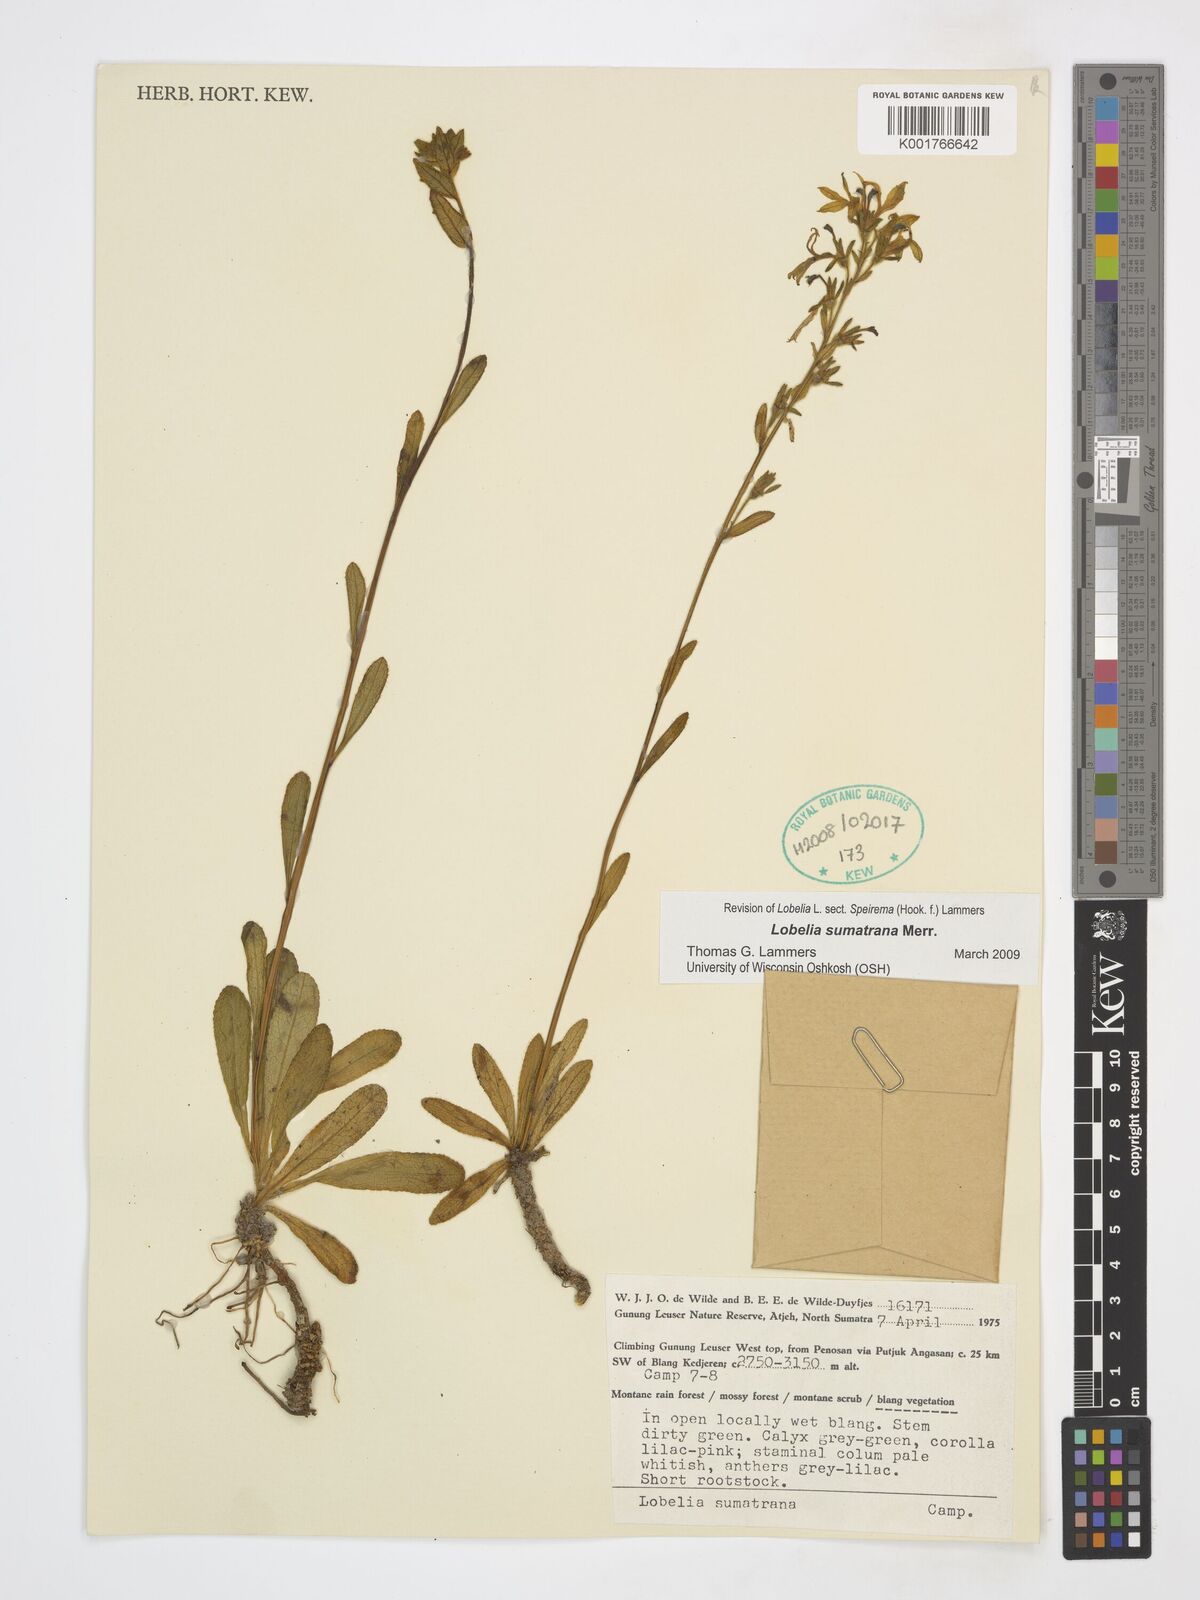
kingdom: Plantae
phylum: Tracheophyta
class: Magnoliopsida
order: Asterales
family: Campanulaceae
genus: Lobelia
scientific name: Lobelia sumatrana
